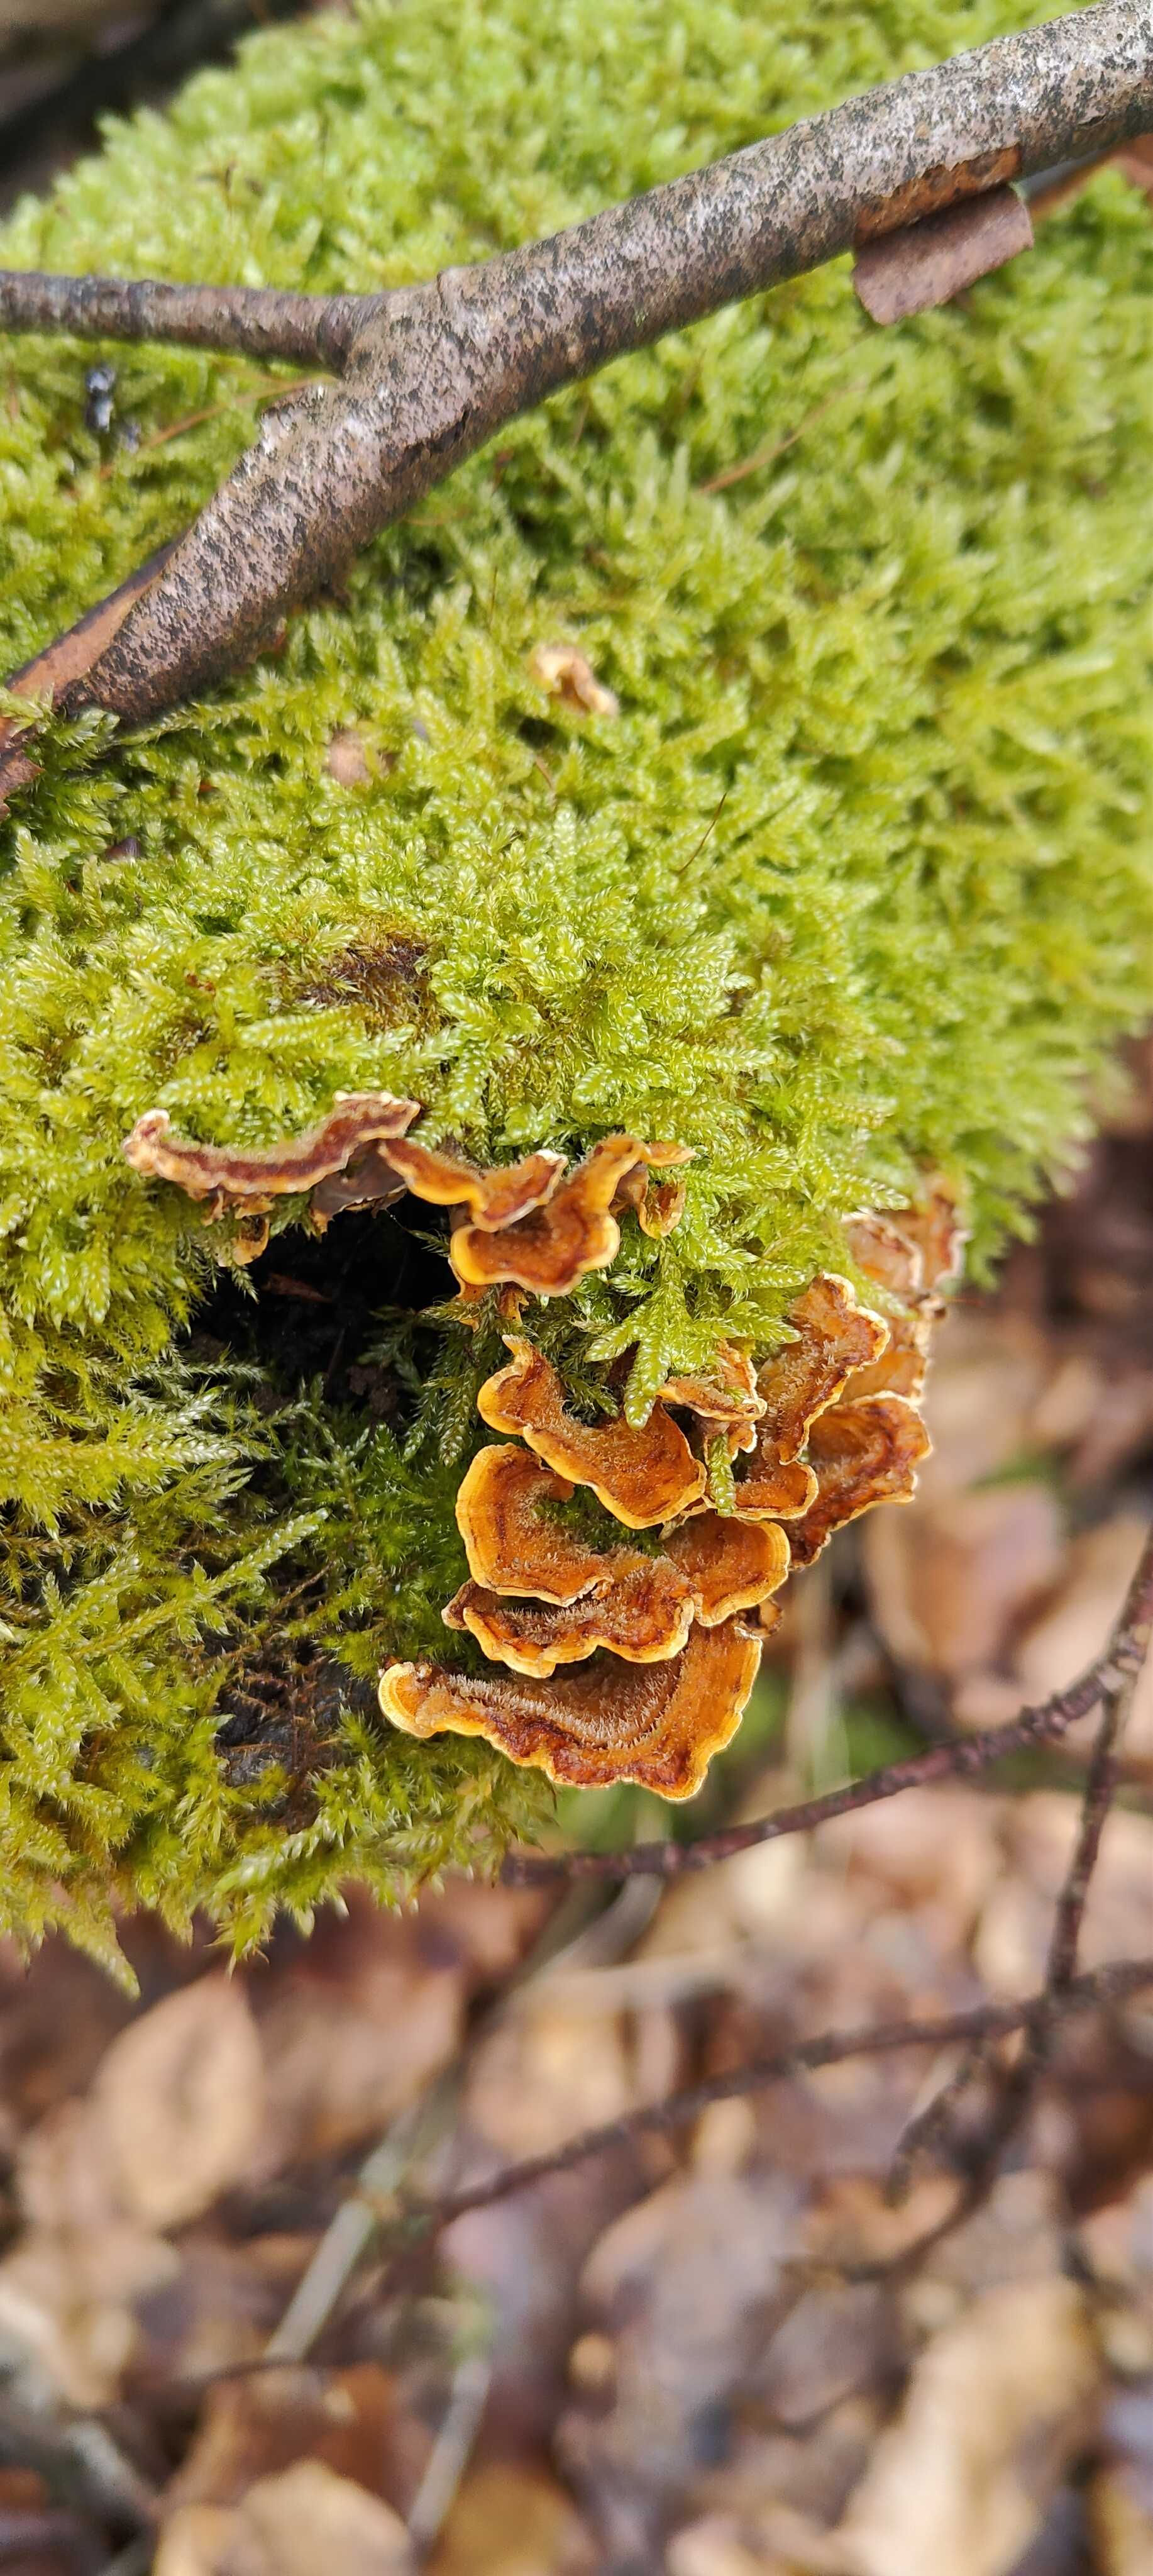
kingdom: Fungi
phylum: Basidiomycota
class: Agaricomycetes
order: Russulales
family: Stereaceae
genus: Stereum
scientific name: Stereum hirsutum
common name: håret lædersvamp
